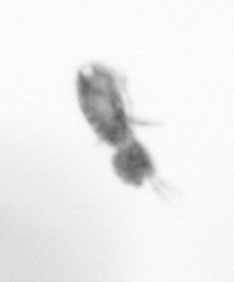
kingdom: Animalia
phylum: Arthropoda
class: Copepoda
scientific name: Copepoda
